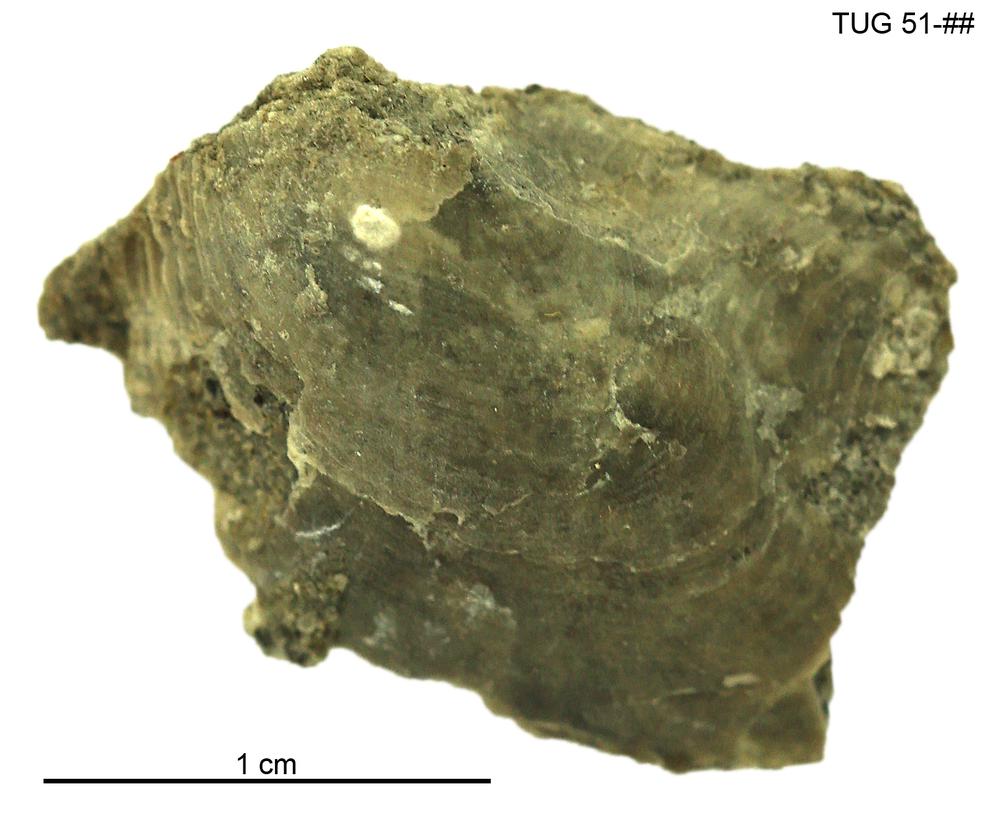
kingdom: Animalia
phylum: Mollusca
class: Bivalvia
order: Ostreida
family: Pterineidae
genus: Pteronitella
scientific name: Pteronitella
